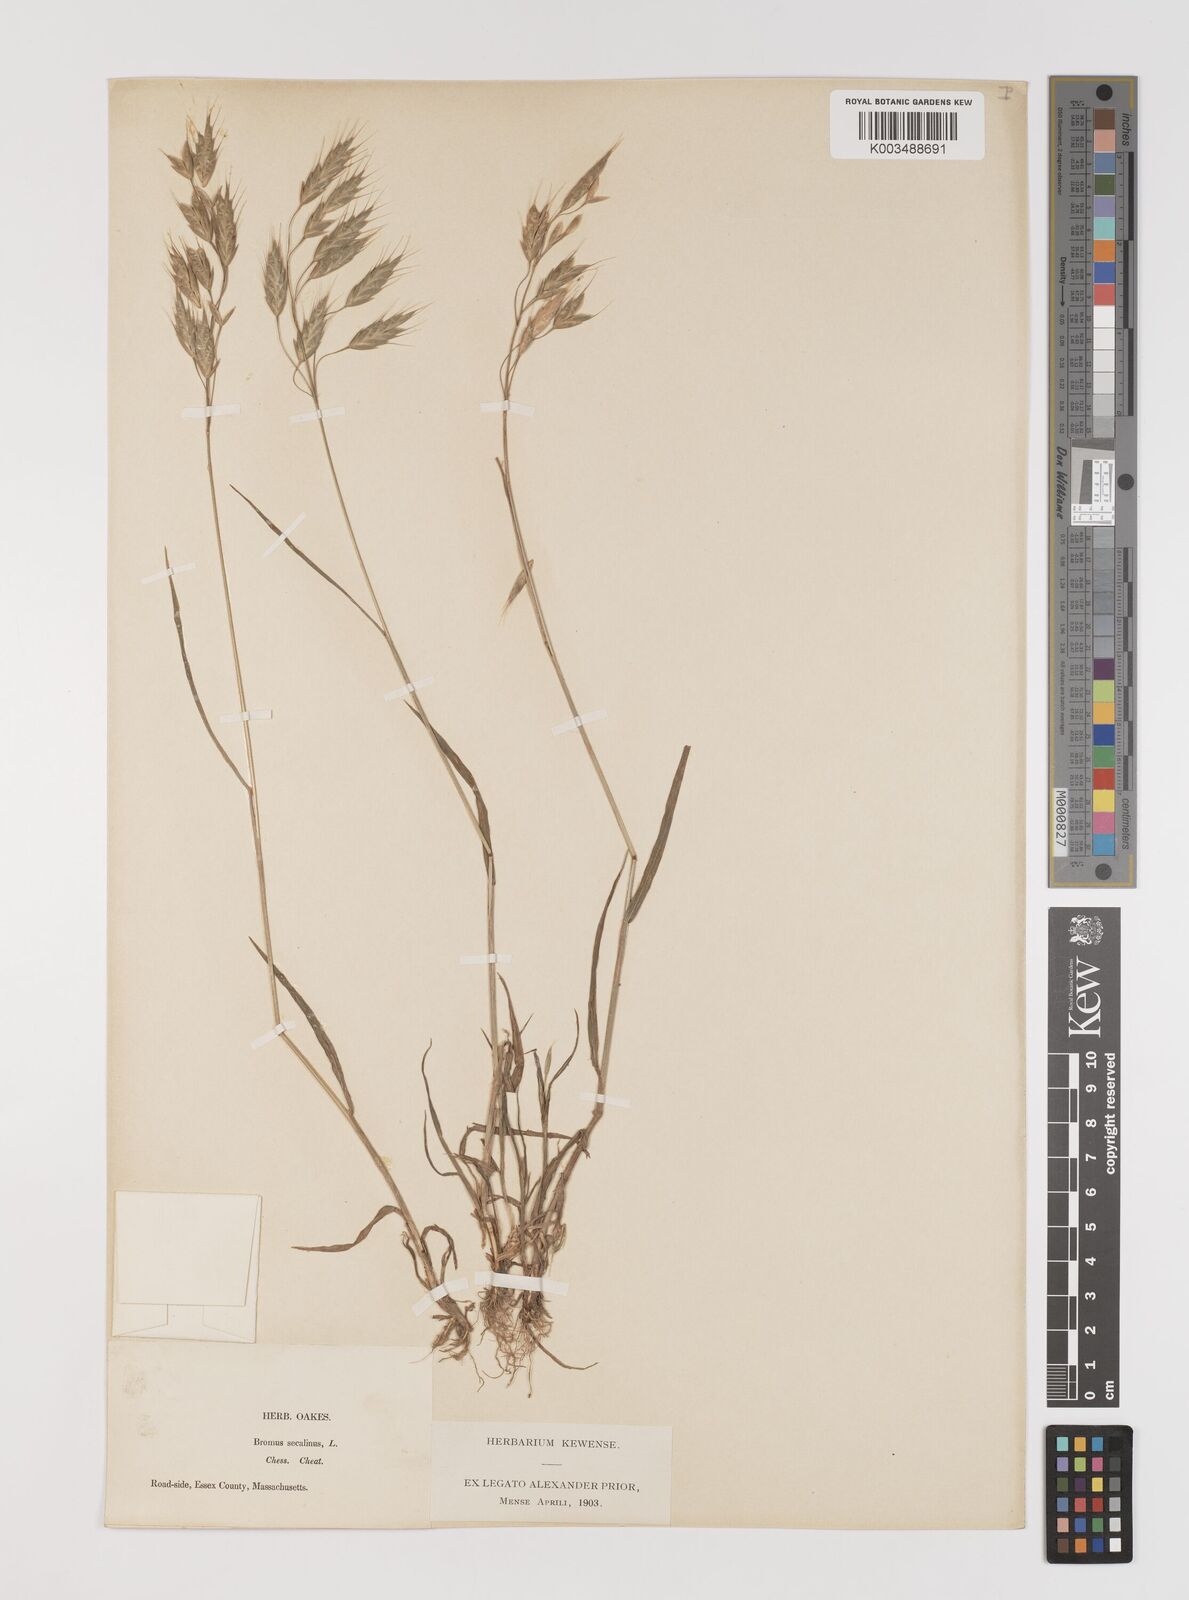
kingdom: Plantae
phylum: Tracheophyta
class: Liliopsida
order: Poales
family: Poaceae
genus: Bromus
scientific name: Bromus racemosus
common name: Bald brome
